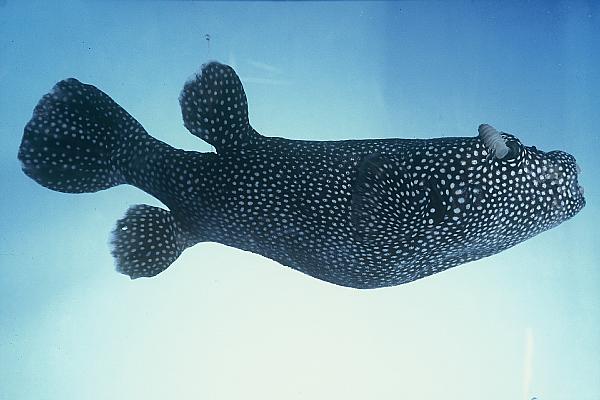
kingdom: Animalia
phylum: Chordata
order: Tetraodontiformes
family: Tetraodontidae
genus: Arothron
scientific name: Arothron meleagris
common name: Guinea-fowl pufferfish
